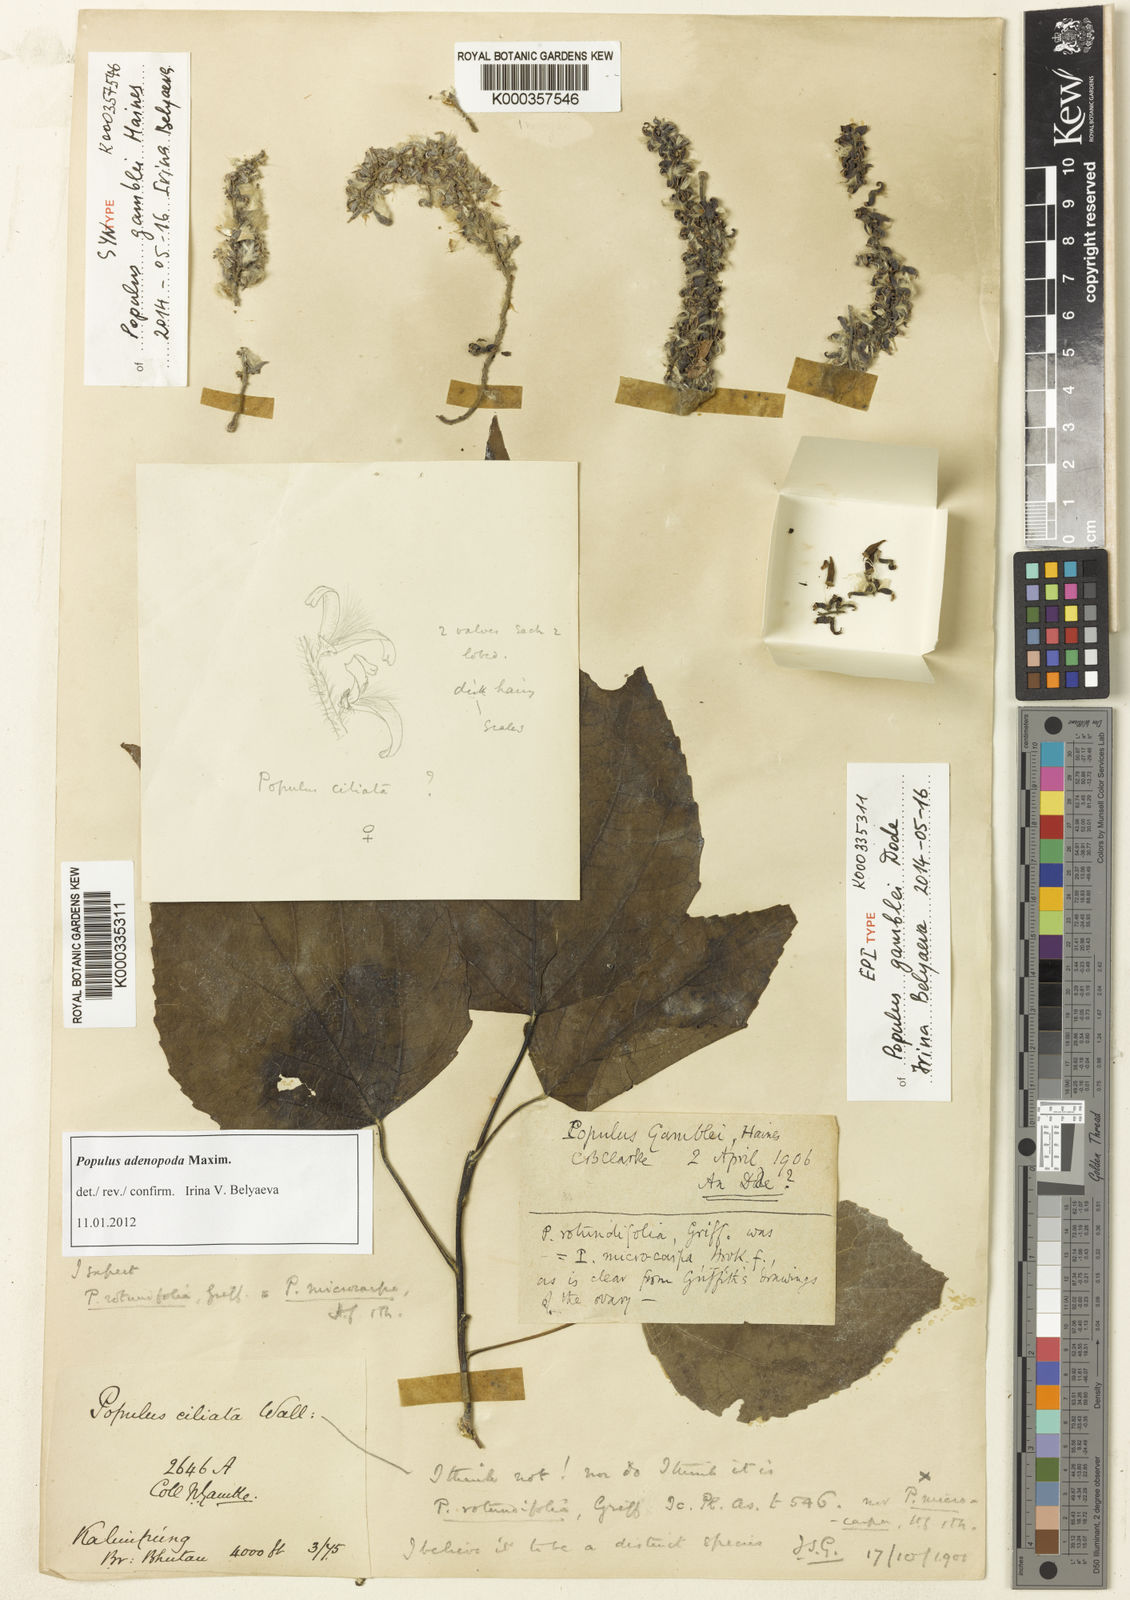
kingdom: Plantae
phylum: Tracheophyta
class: Magnoliopsida
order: Malpighiales
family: Salicaceae
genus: Populus
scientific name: Populus
